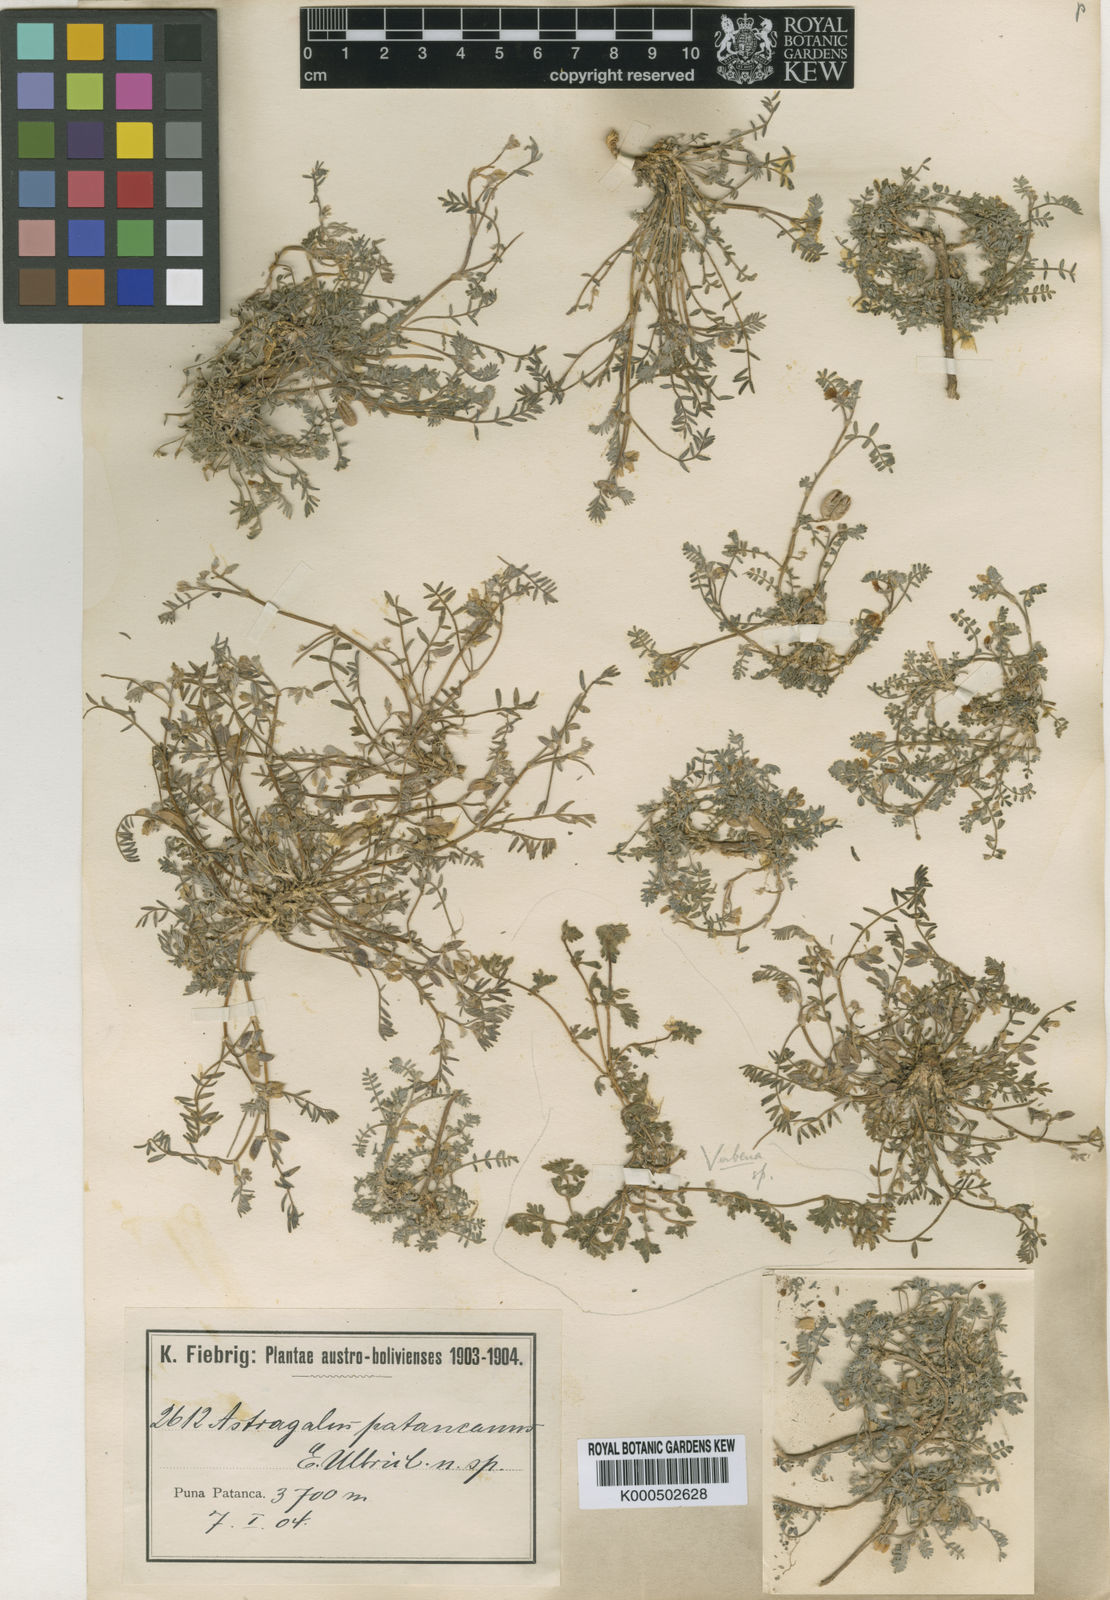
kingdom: Plantae
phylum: Tracheophyta
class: Magnoliopsida
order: Fabales
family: Fabaceae
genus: Astragalus
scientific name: Astragalus micranthellus
